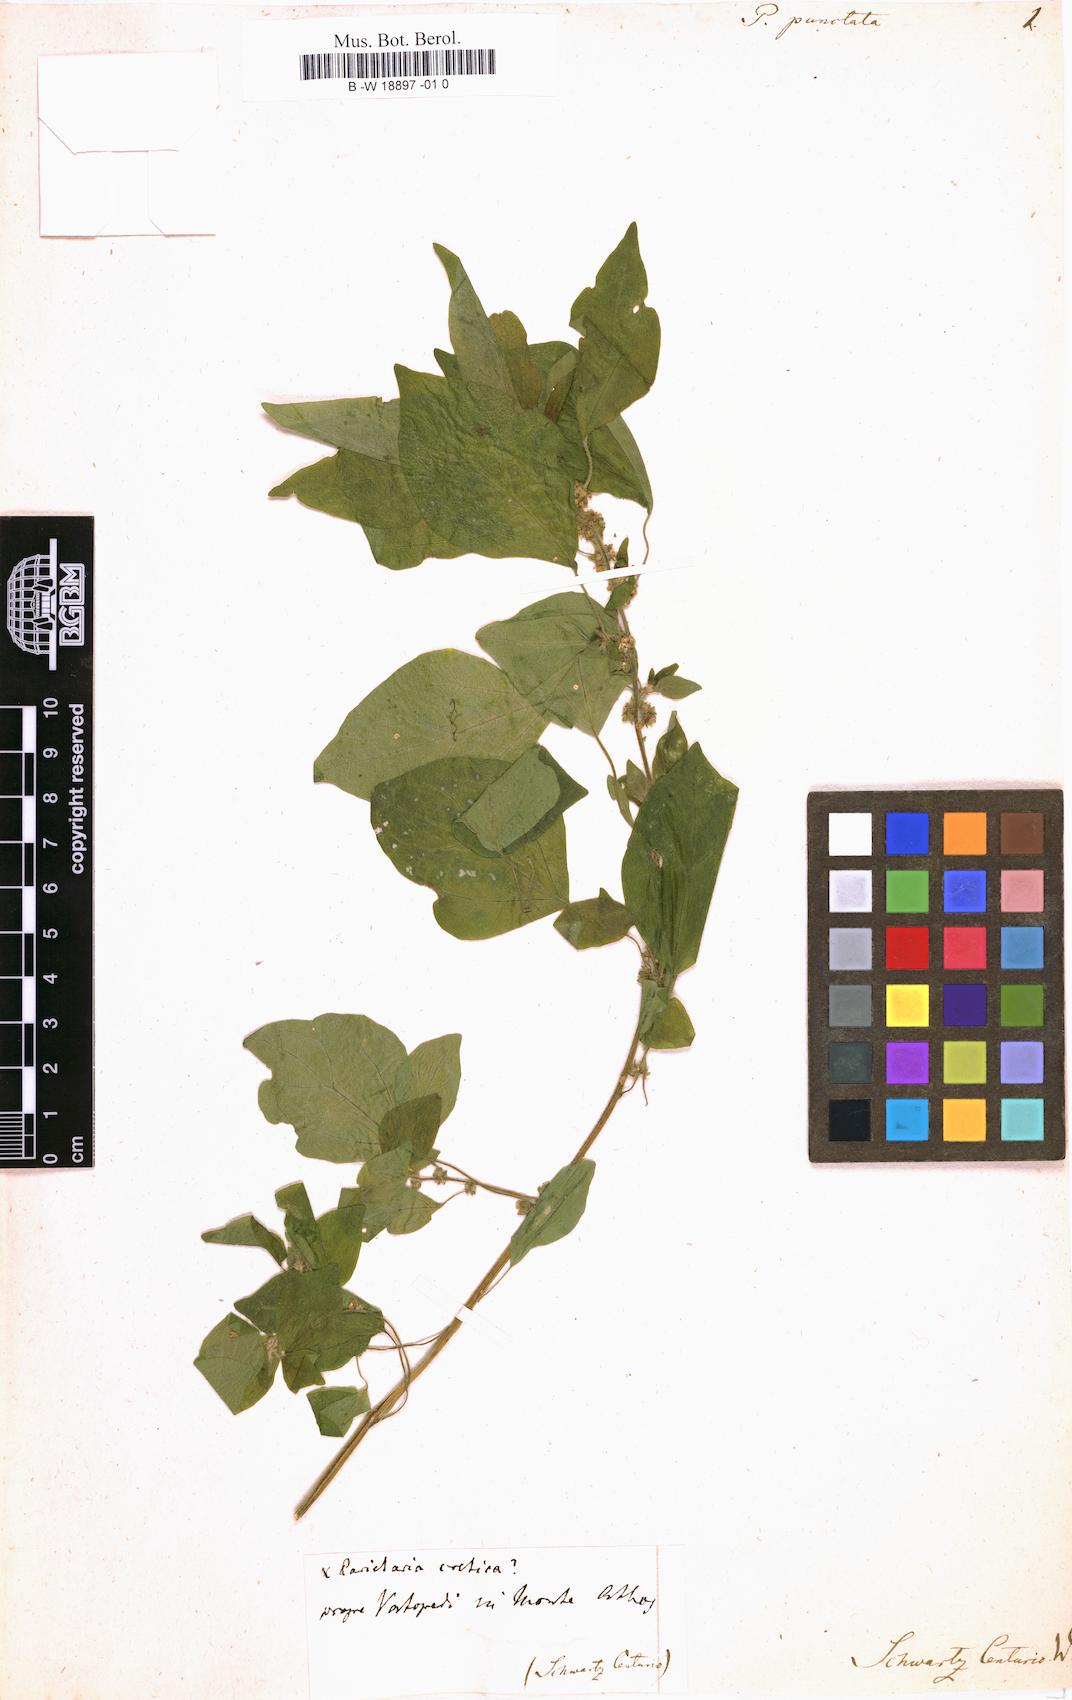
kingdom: Plantae
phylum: Tracheophyta
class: Magnoliopsida
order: Rosales
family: Urticaceae
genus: Parietaria
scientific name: Parietaria judaica
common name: Pellitory-of-the-wall
